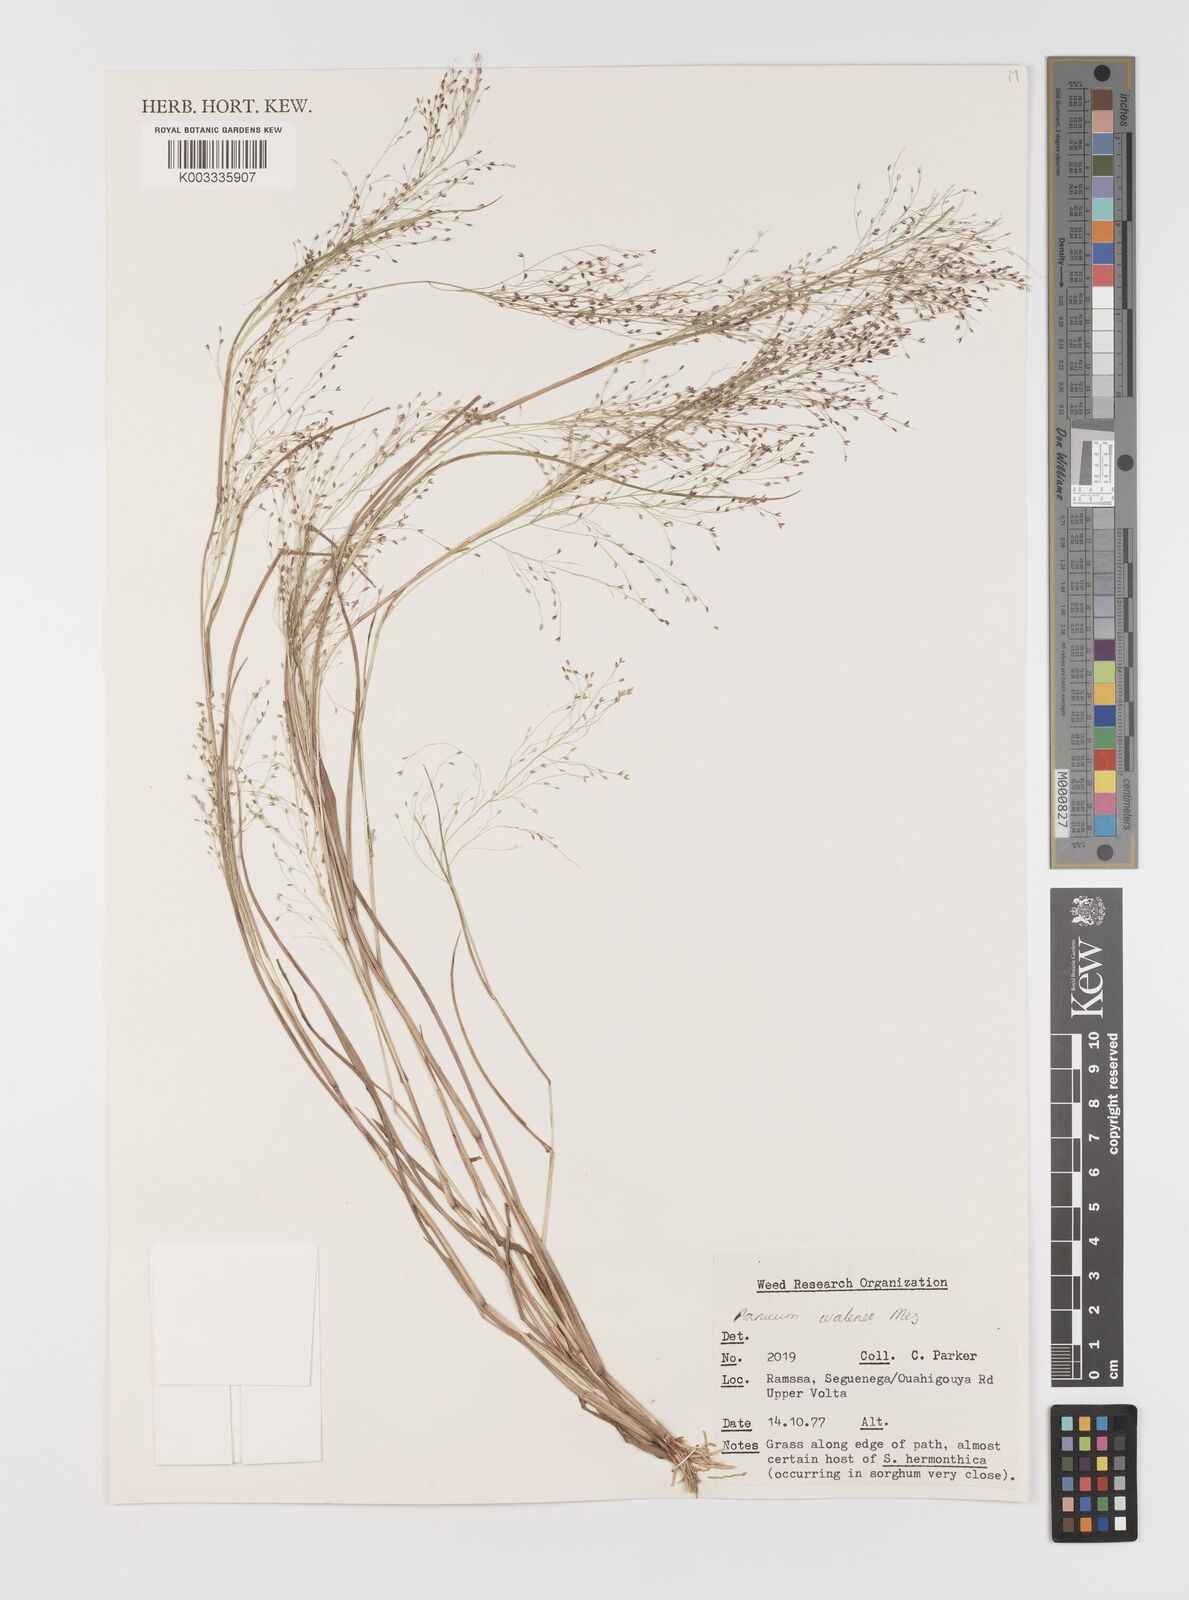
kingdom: Plantae
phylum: Tracheophyta
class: Liliopsida
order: Poales
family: Poaceae
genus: Panicum
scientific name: Panicum humile
